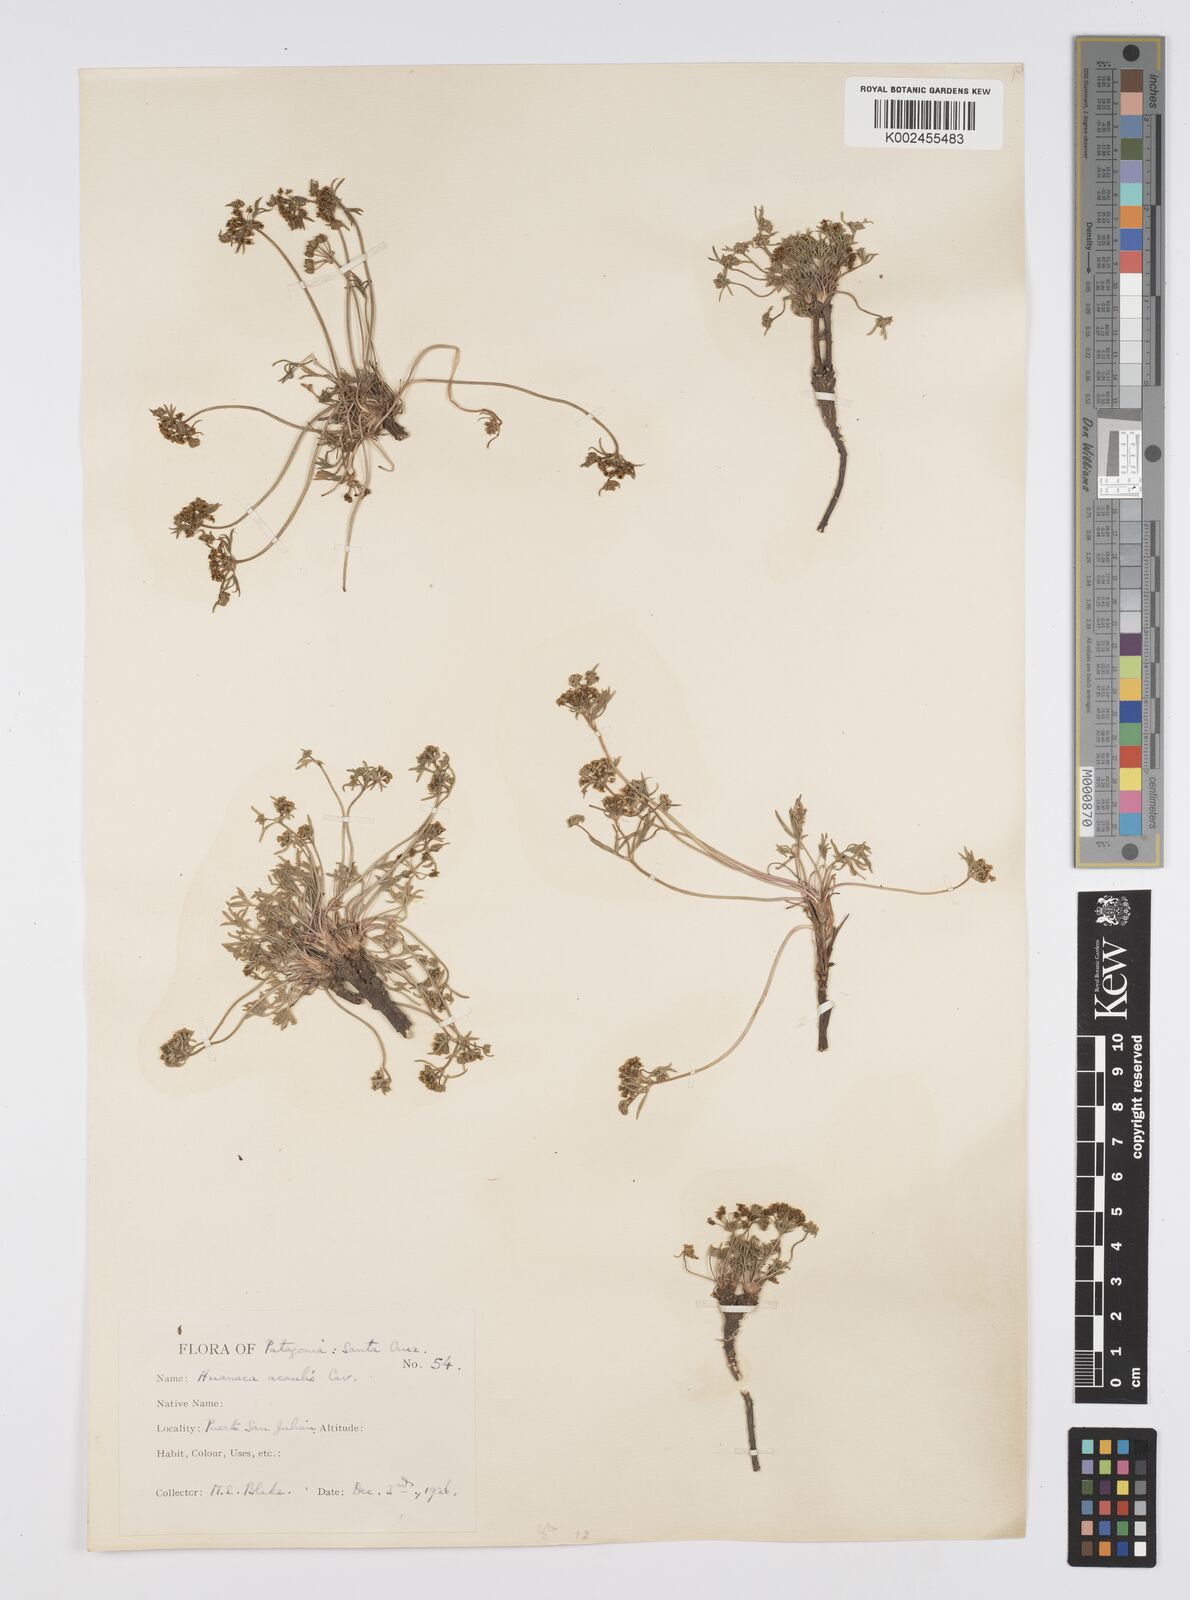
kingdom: Plantae
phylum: Tracheophyta
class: Magnoliopsida
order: Apiales
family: Apiaceae
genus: Azorella
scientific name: Azorella acaulis
